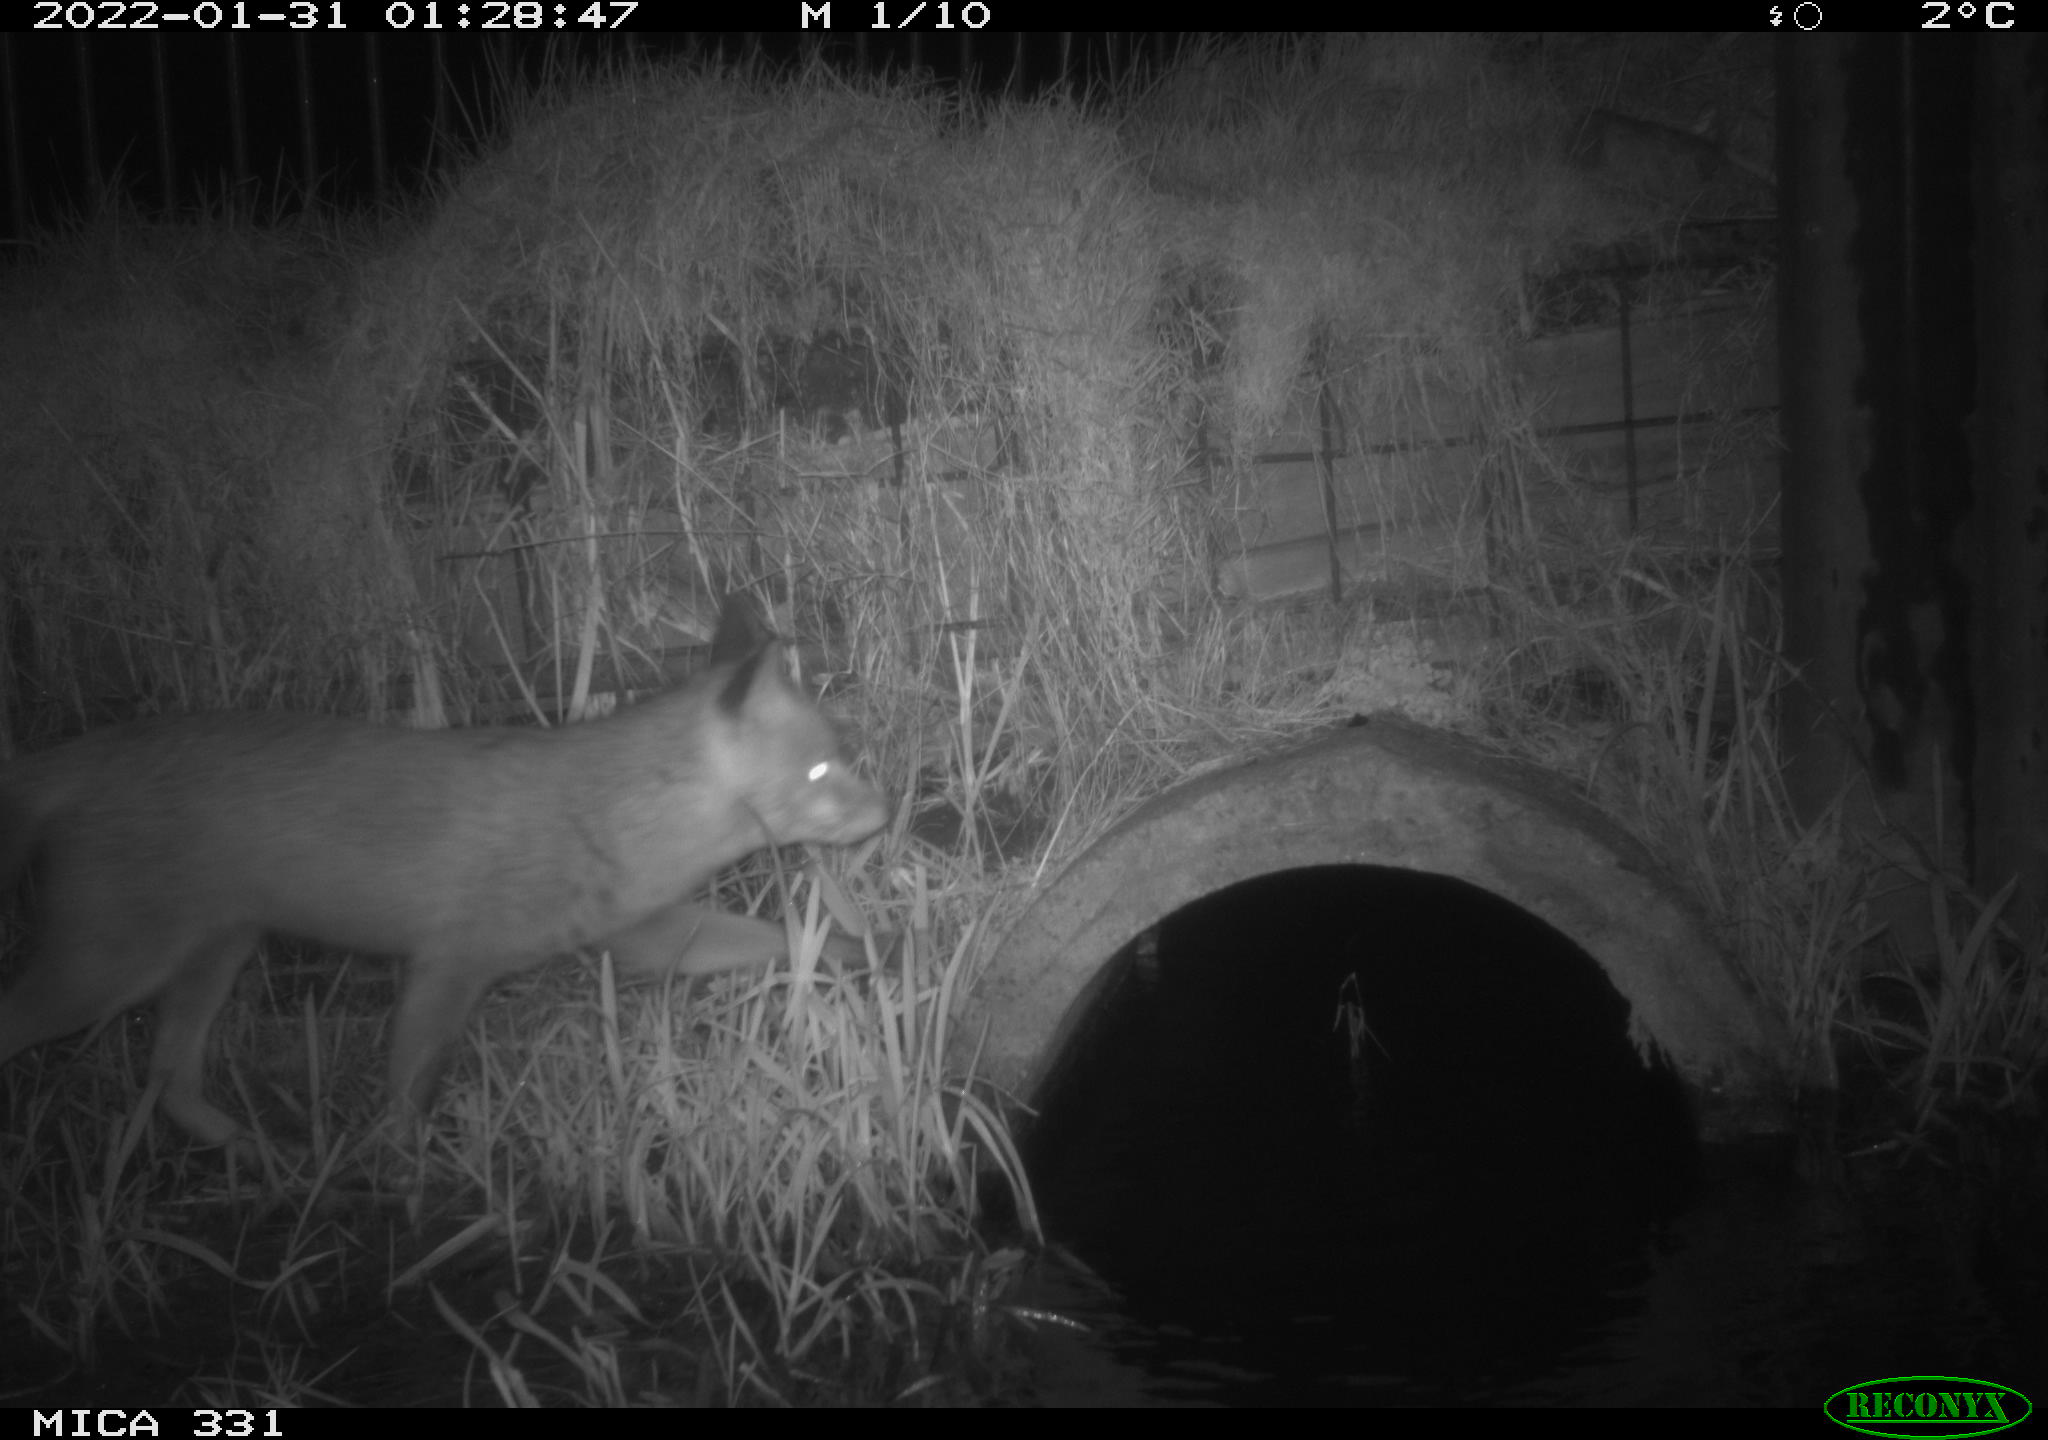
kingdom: Animalia
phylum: Chordata
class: Mammalia
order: Carnivora
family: Canidae
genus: Vulpes
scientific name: Vulpes vulpes
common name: Red fox
